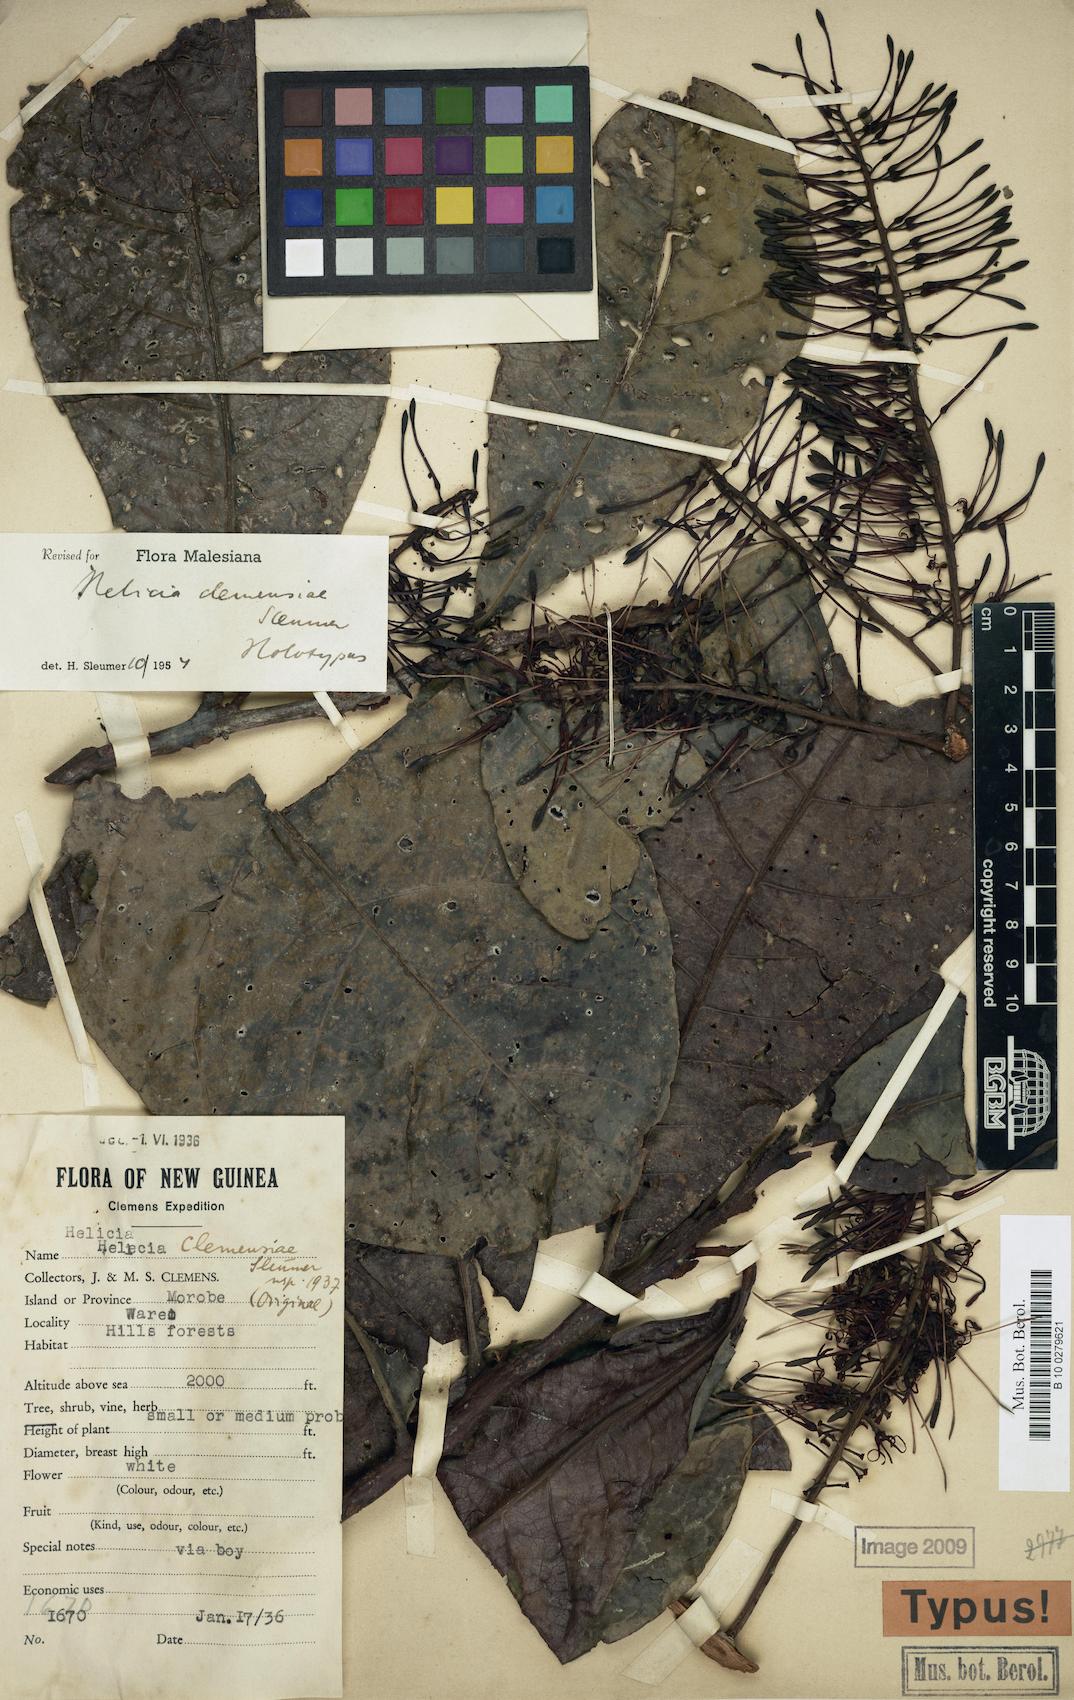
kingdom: Plantae
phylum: Tracheophyta
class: Magnoliopsida
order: Proteales
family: Proteaceae
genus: Helicia
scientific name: Helicia obtusata
